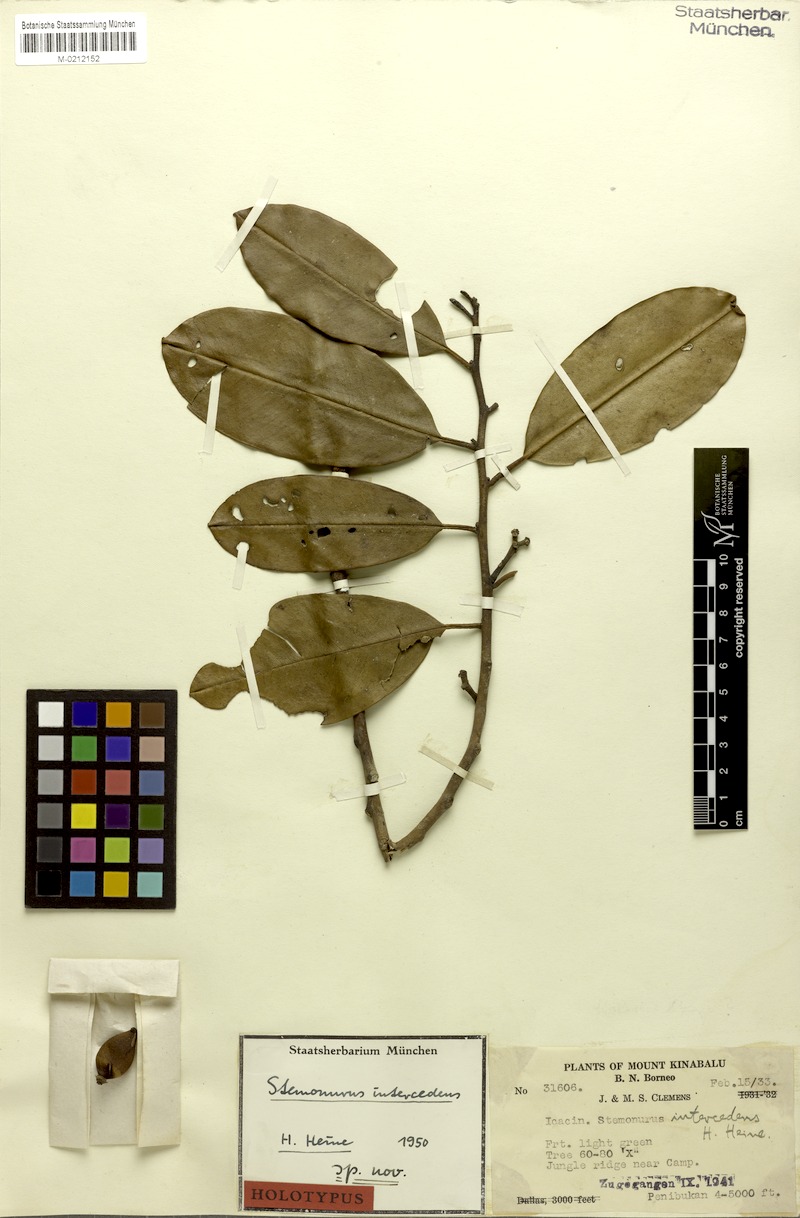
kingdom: Plantae
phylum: Tracheophyta
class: Magnoliopsida
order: Cardiopteridales
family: Stemonuraceae
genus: Stemonurus
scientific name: Stemonurus umbellatus
